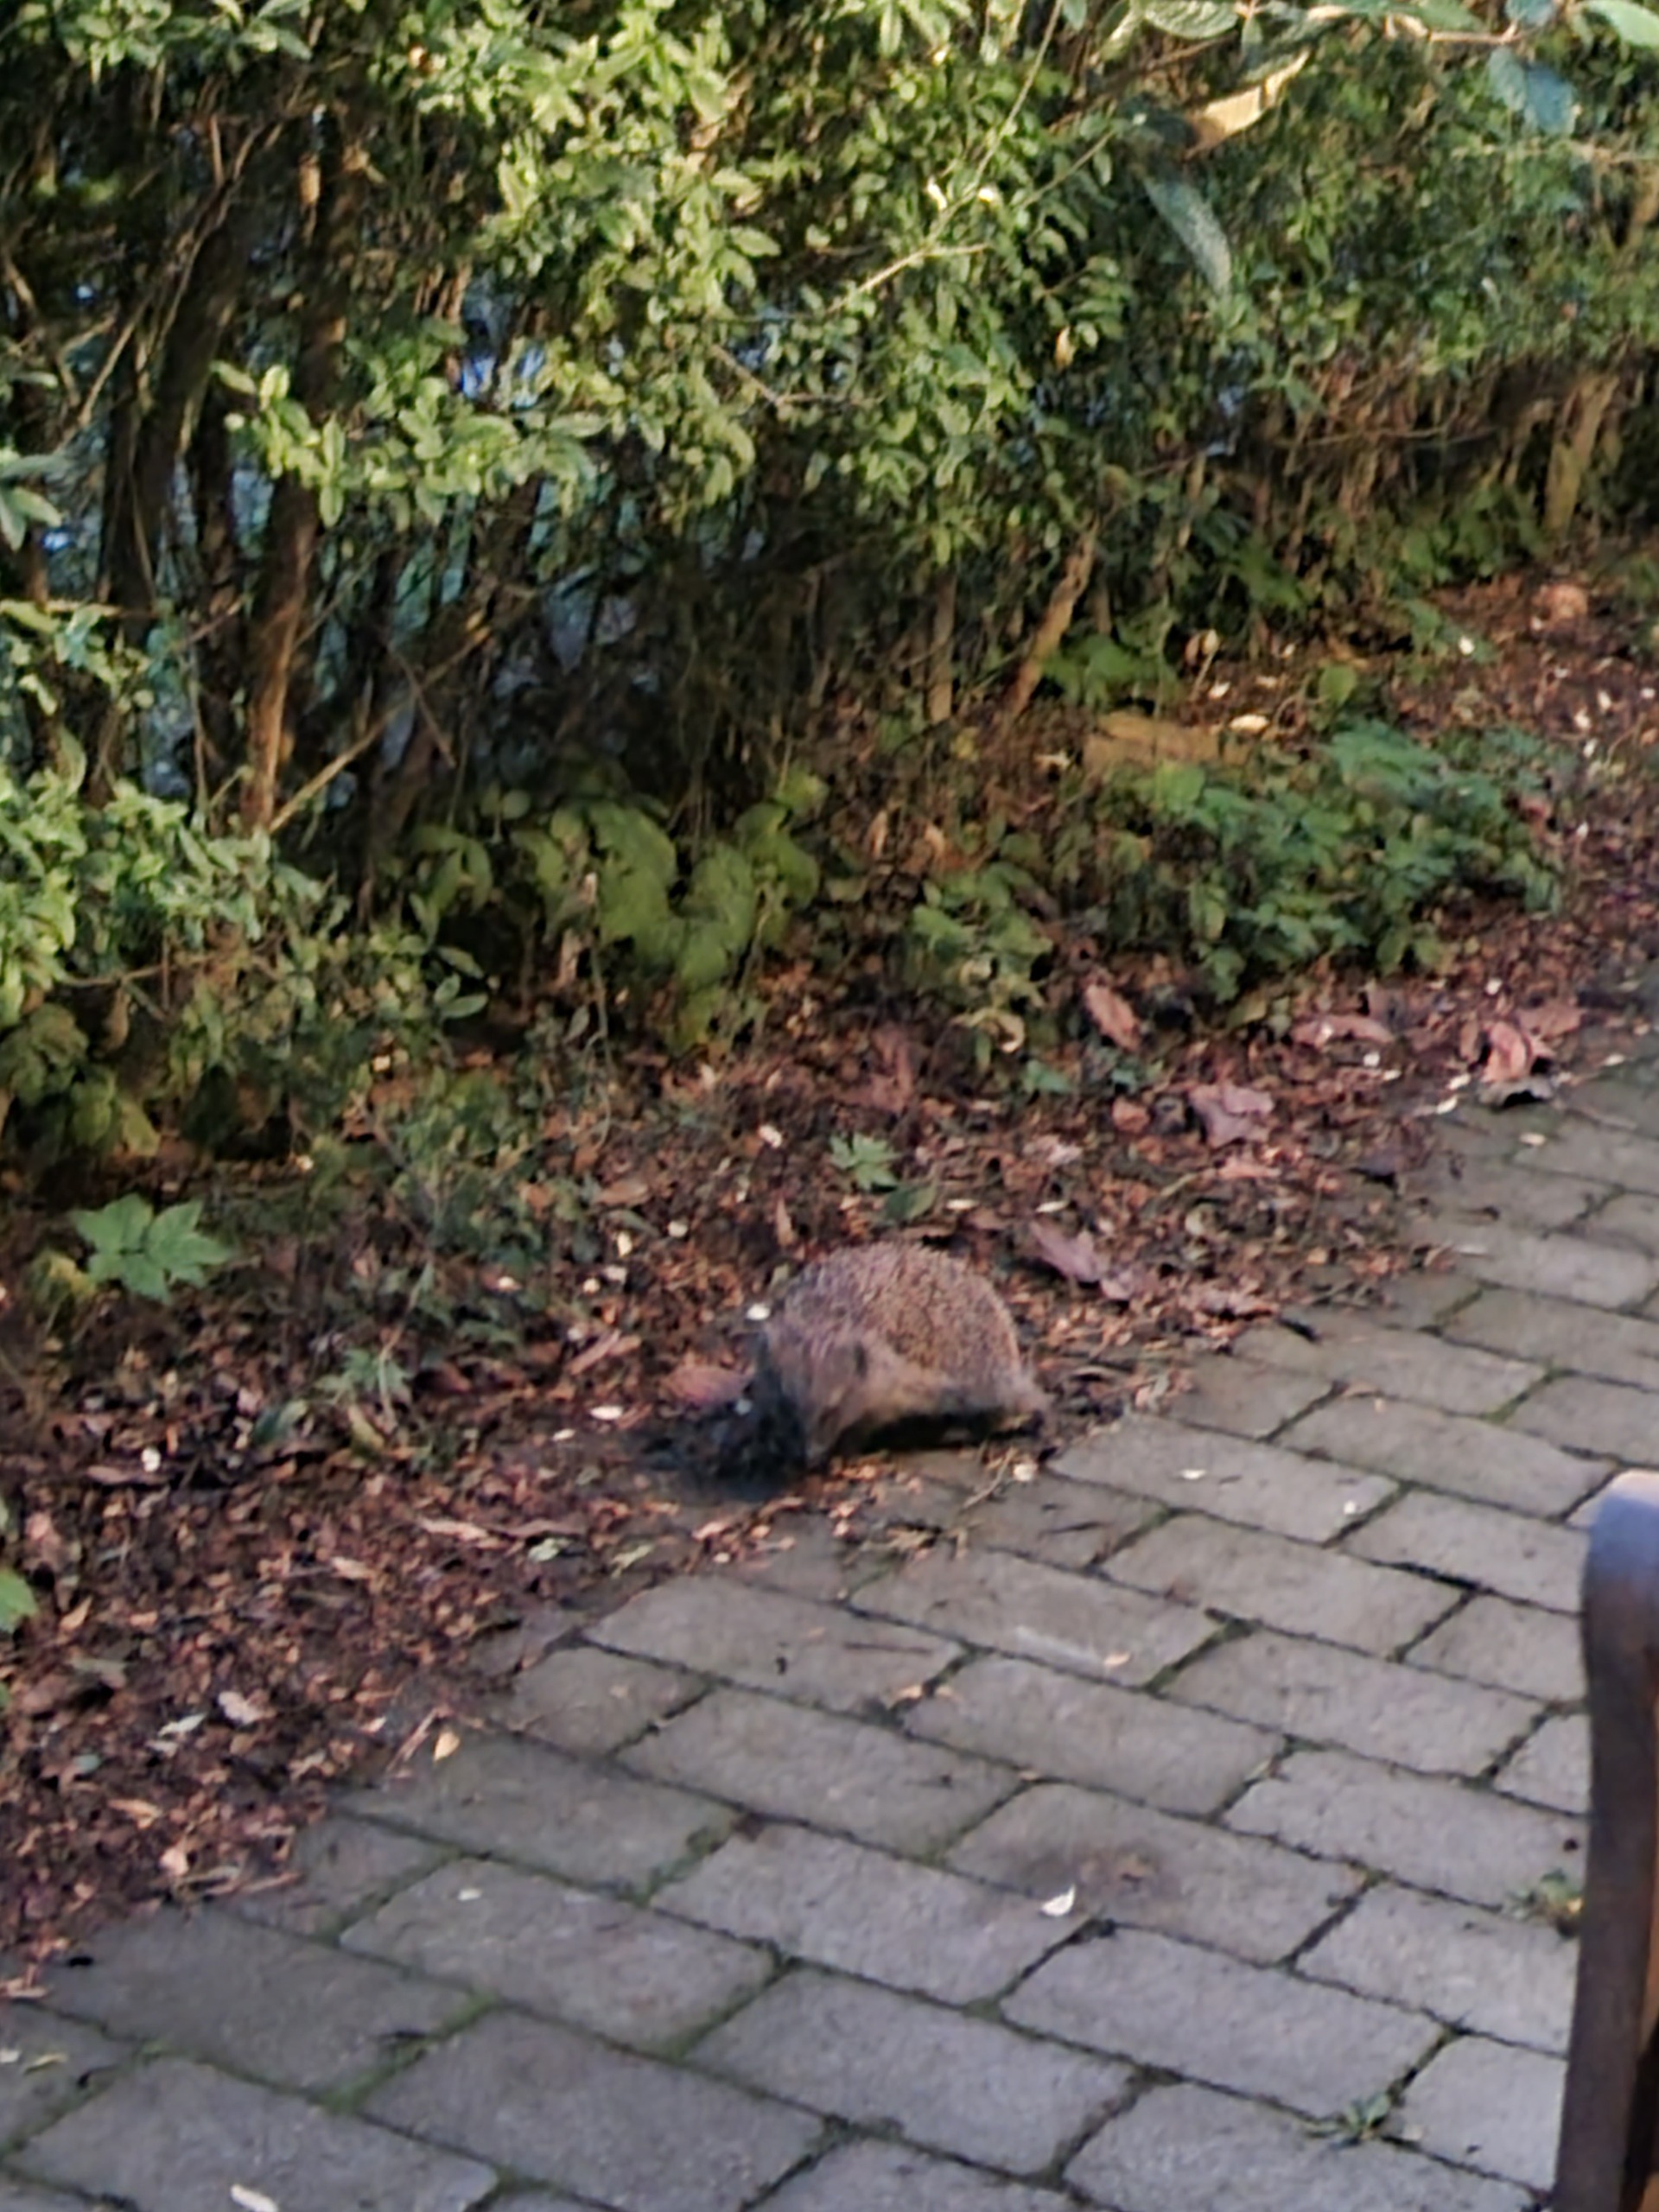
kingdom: Animalia
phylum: Chordata
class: Mammalia
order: Erinaceomorpha
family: Erinaceidae
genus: Erinaceus
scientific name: Erinaceus europaeus
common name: Pindsvin
